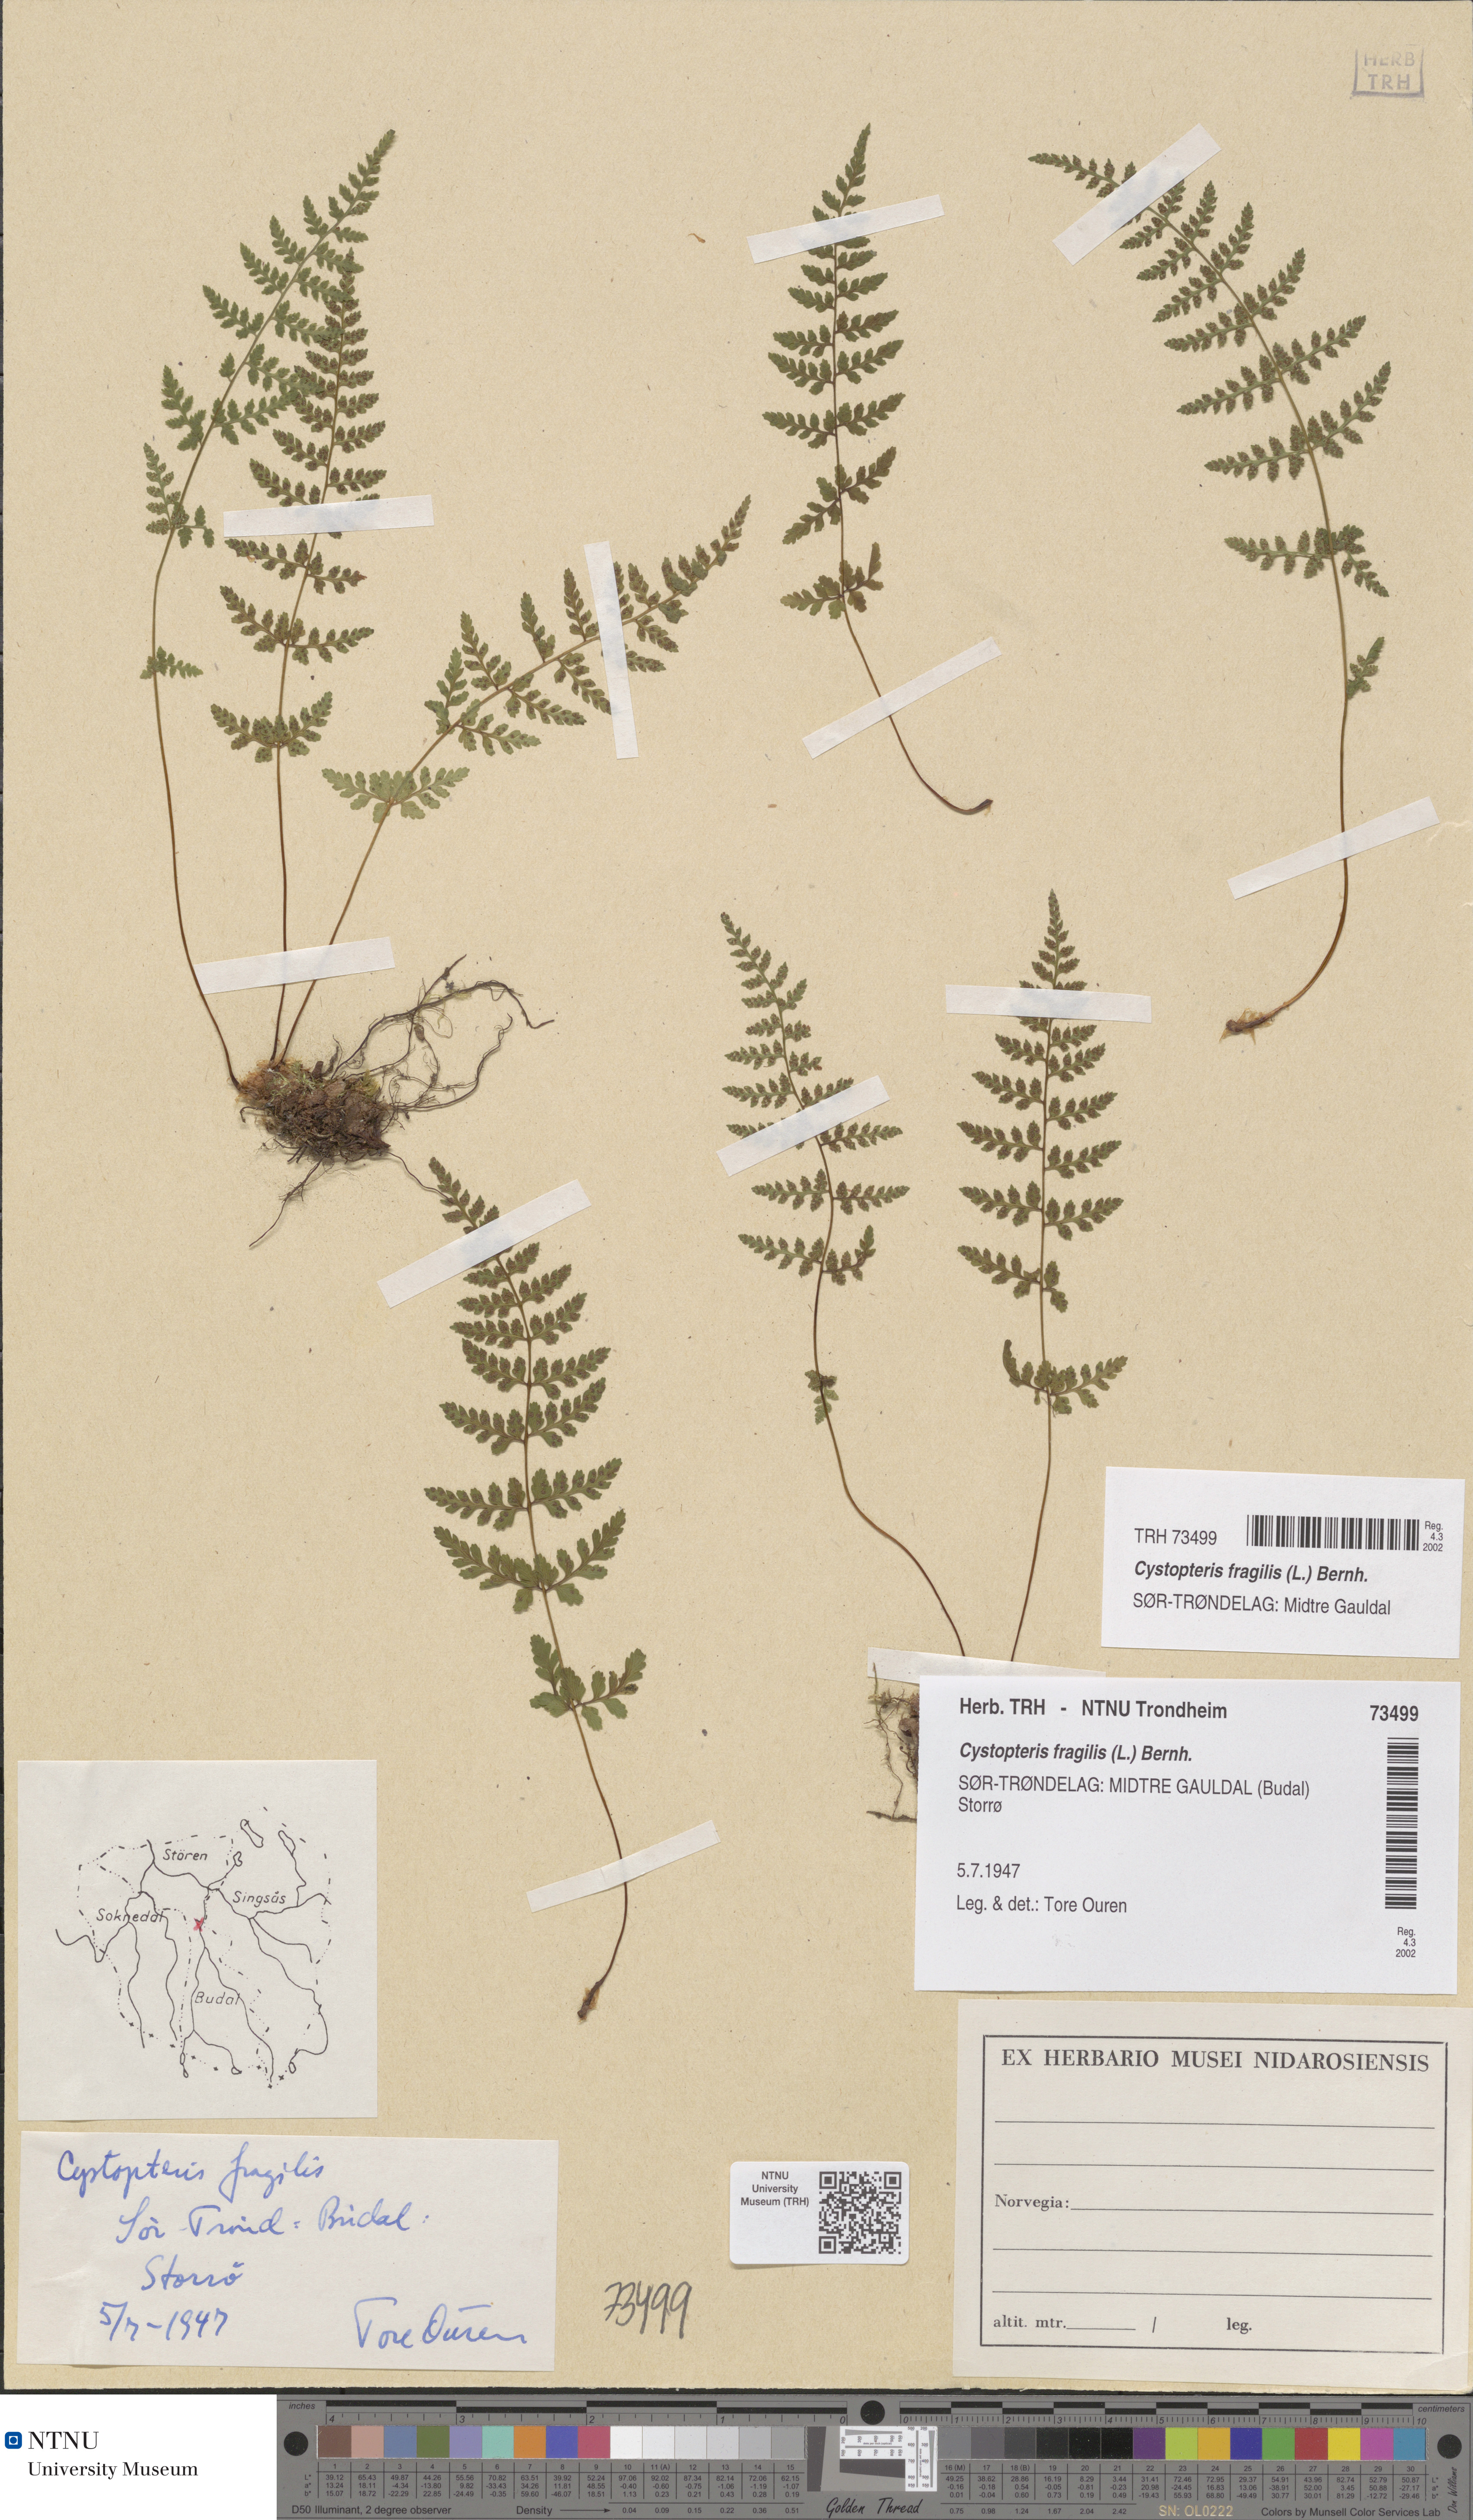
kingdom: Plantae
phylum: Tracheophyta
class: Polypodiopsida
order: Polypodiales
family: Cystopteridaceae
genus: Cystopteris
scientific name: Cystopteris fragilis
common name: Brittle bladder fern
